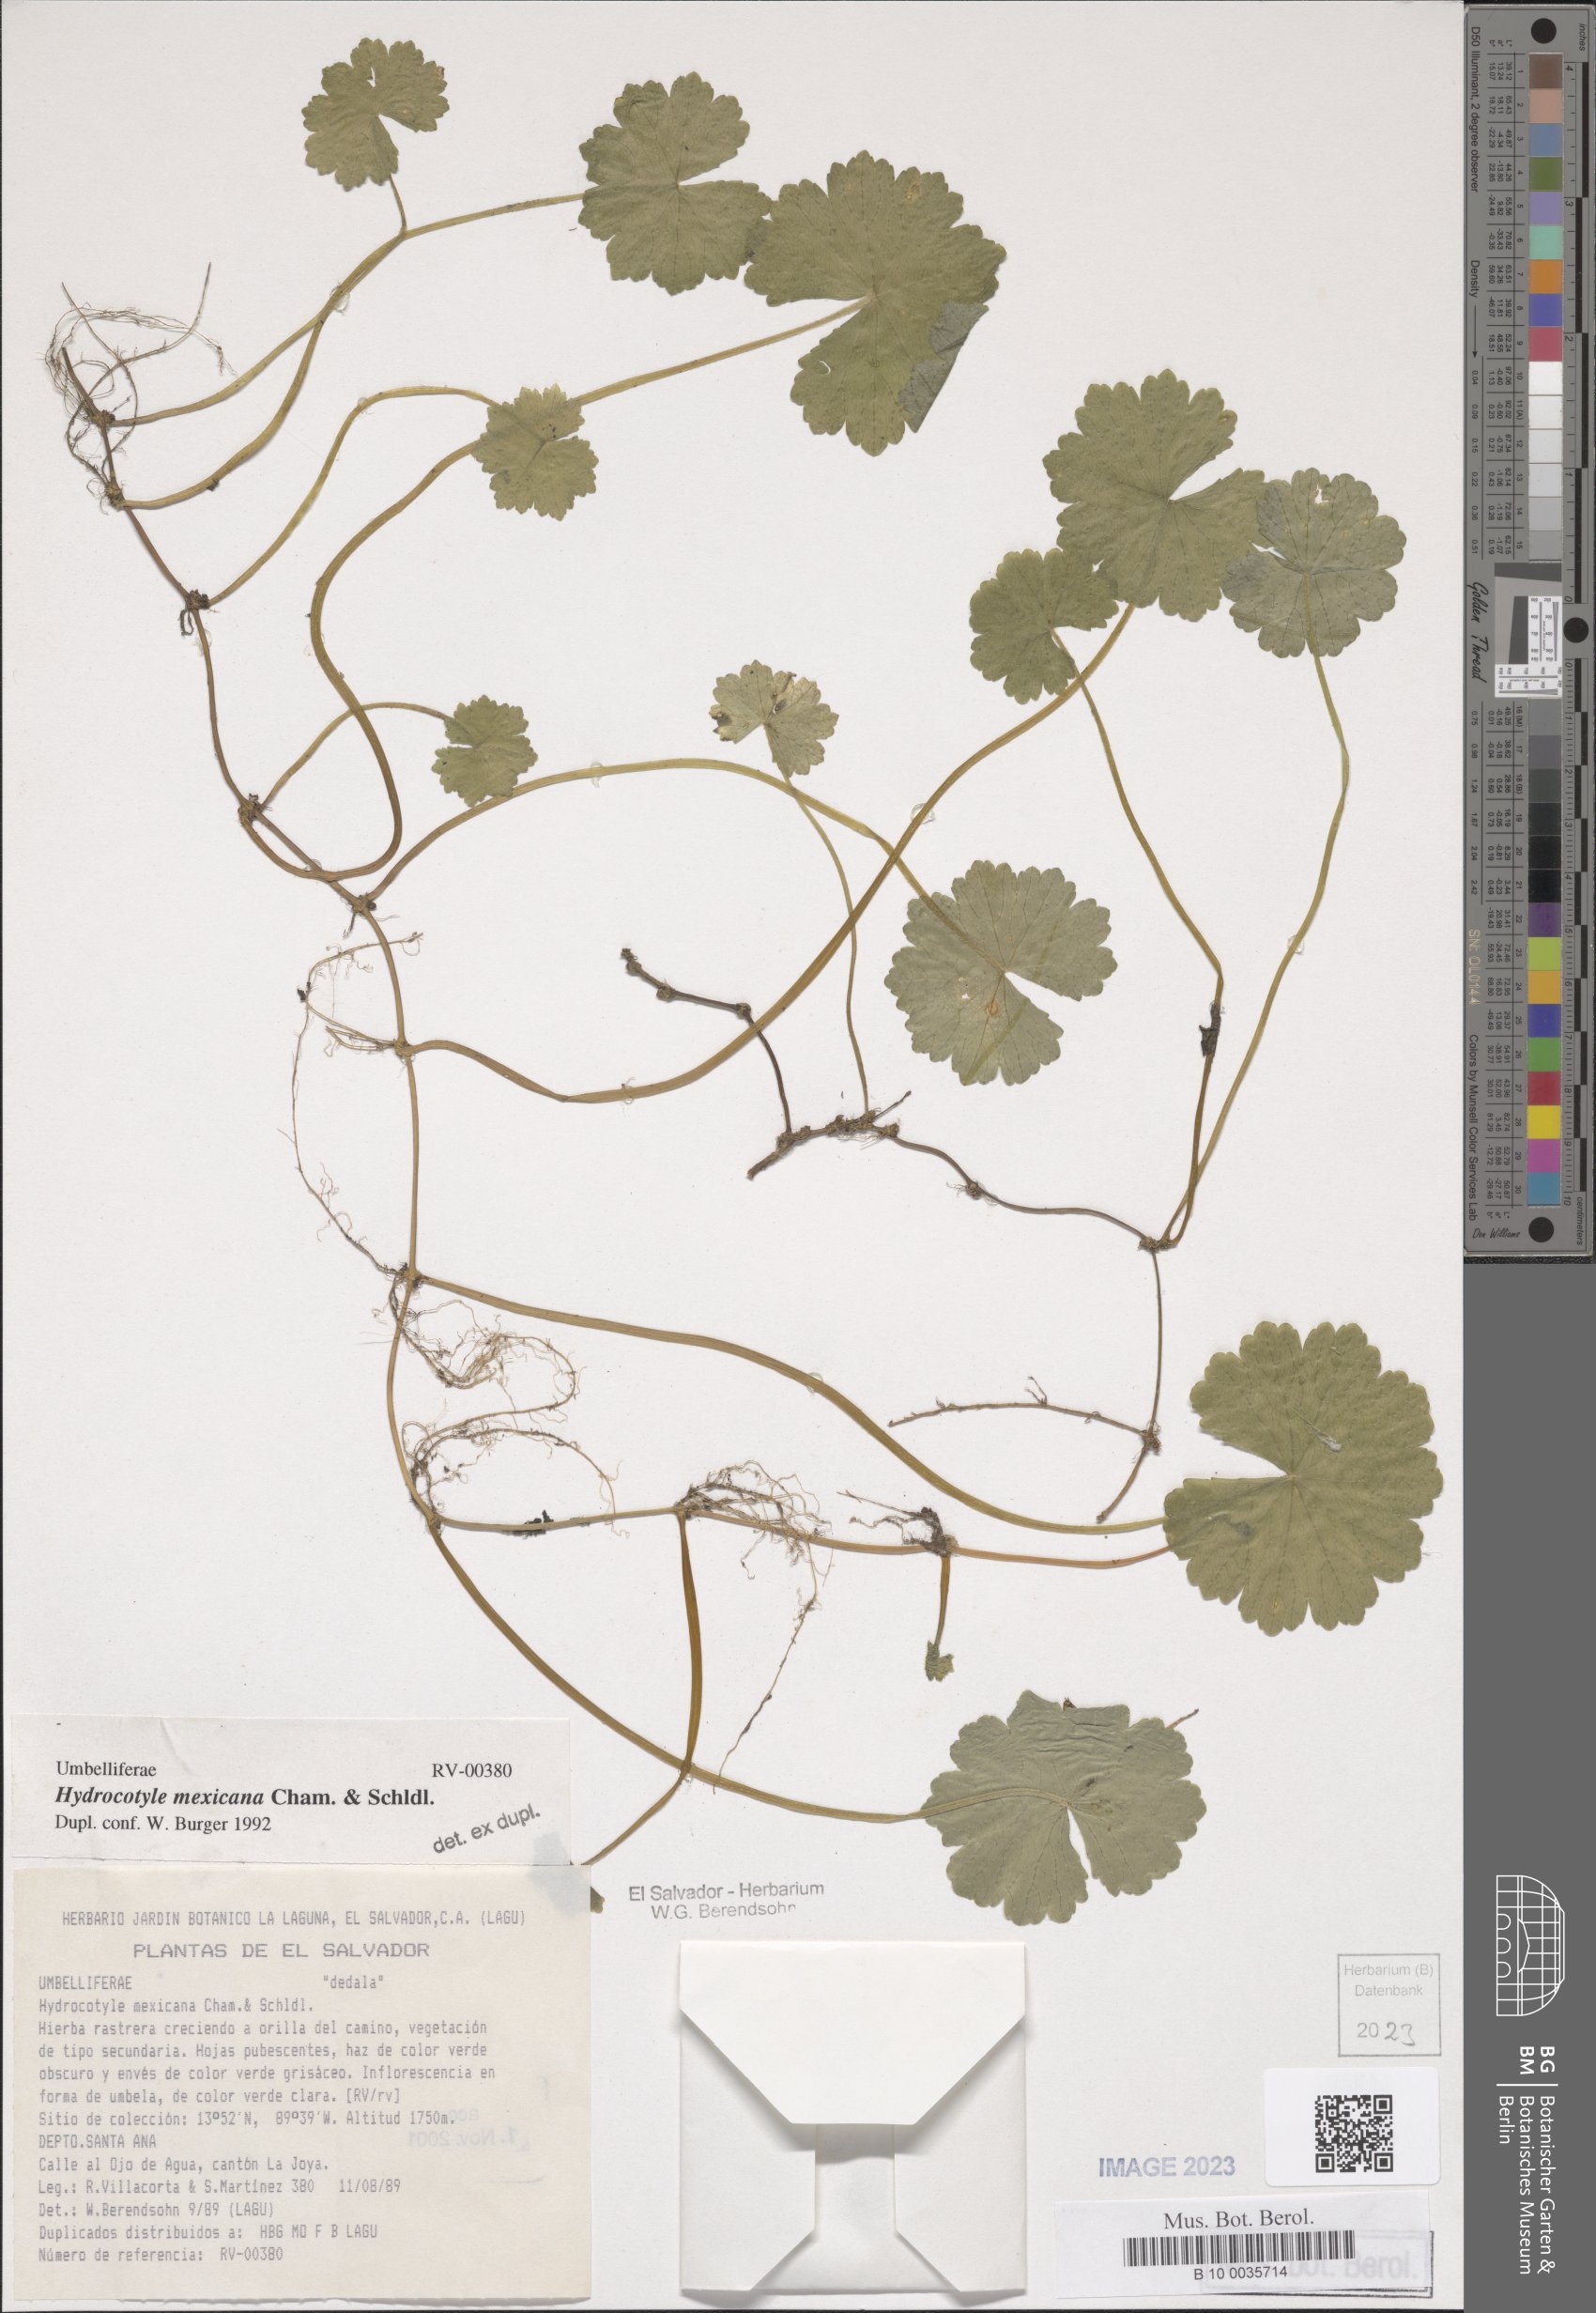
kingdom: Plantae
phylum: Tracheophyta
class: Magnoliopsida
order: Apiales
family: Araliaceae
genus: Hydrocotyle
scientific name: Hydrocotyle mexicana
